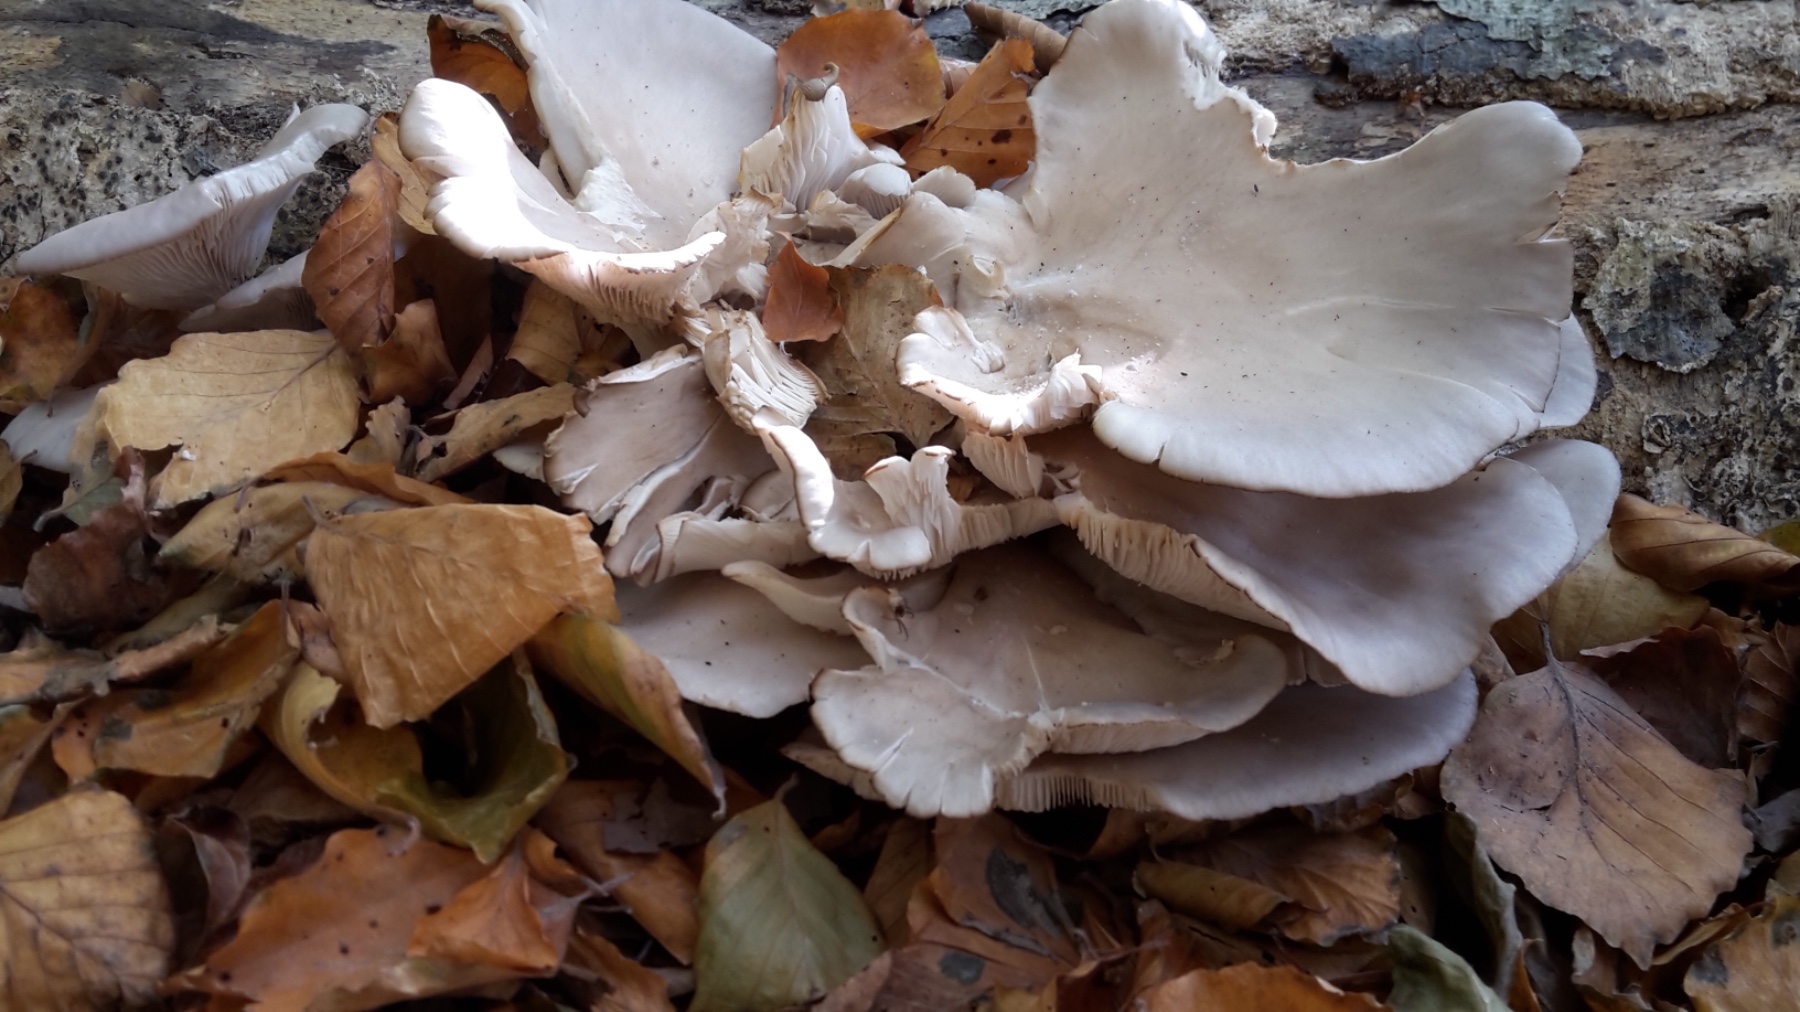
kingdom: Fungi
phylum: Basidiomycota
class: Agaricomycetes
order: Agaricales
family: Pleurotaceae
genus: Pleurotus
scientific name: Pleurotus ostreatus
